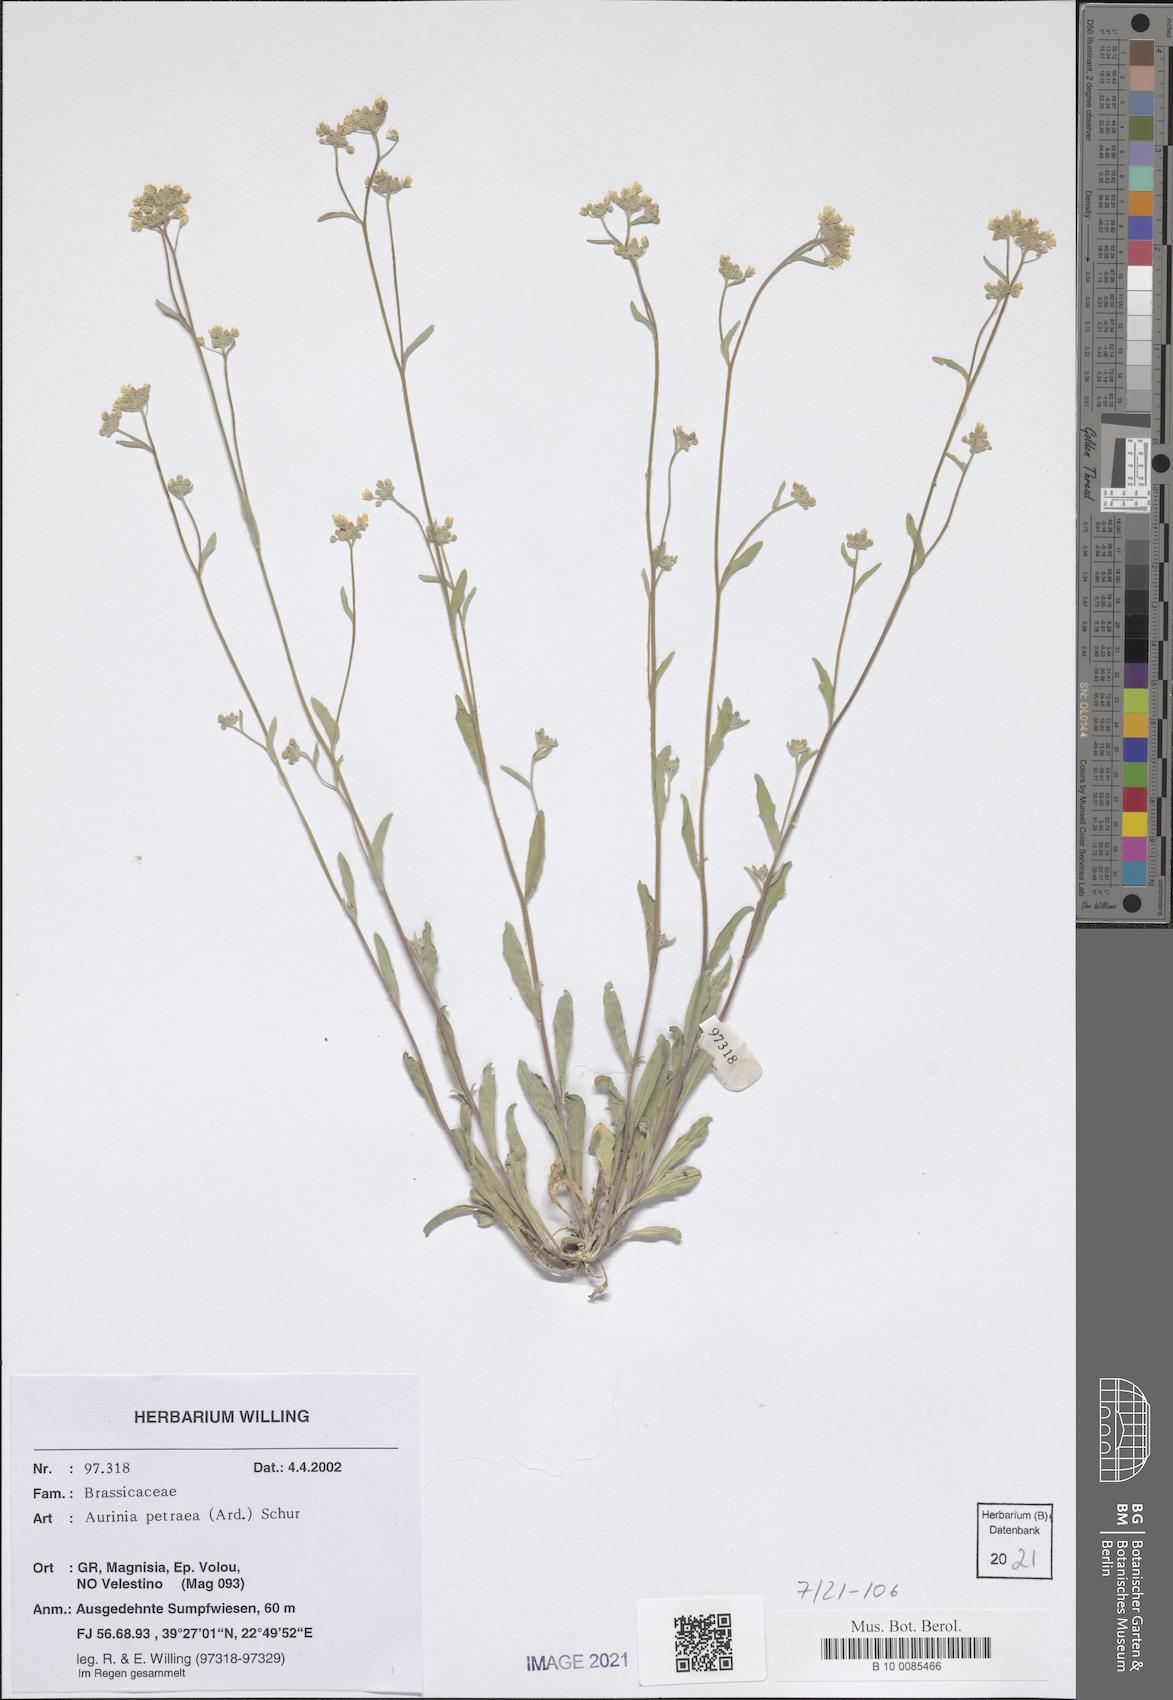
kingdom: Plantae
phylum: Tracheophyta
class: Magnoliopsida
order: Brassicales
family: Brassicaceae
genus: Aurinia
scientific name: Aurinia petraea
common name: Goldentuft
